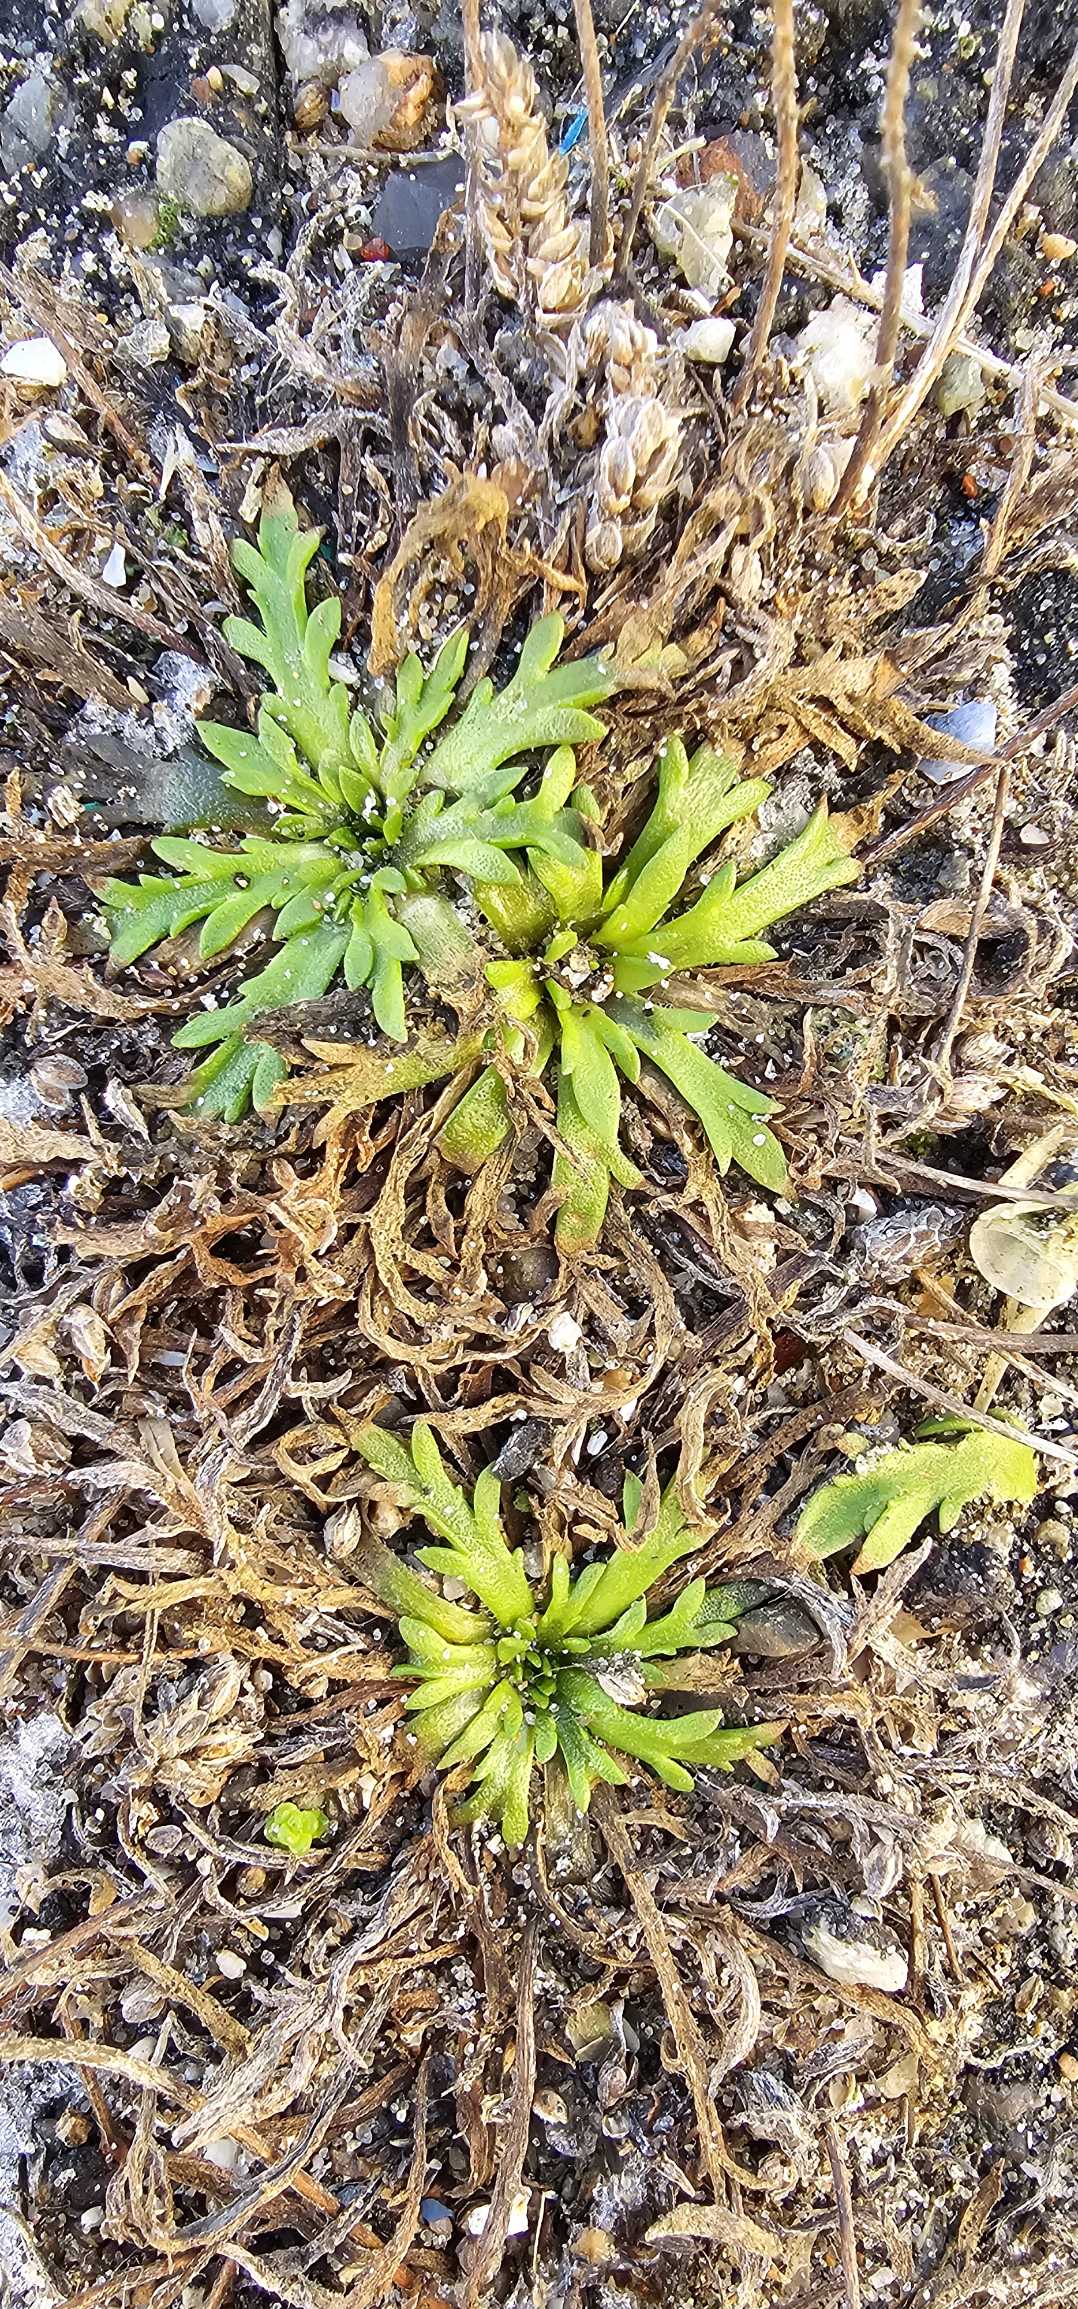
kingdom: Plantae
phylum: Tracheophyta
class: Magnoliopsida
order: Lamiales
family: Plantaginaceae
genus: Plantago
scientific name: Plantago coronopus
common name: Fliget vejbred
